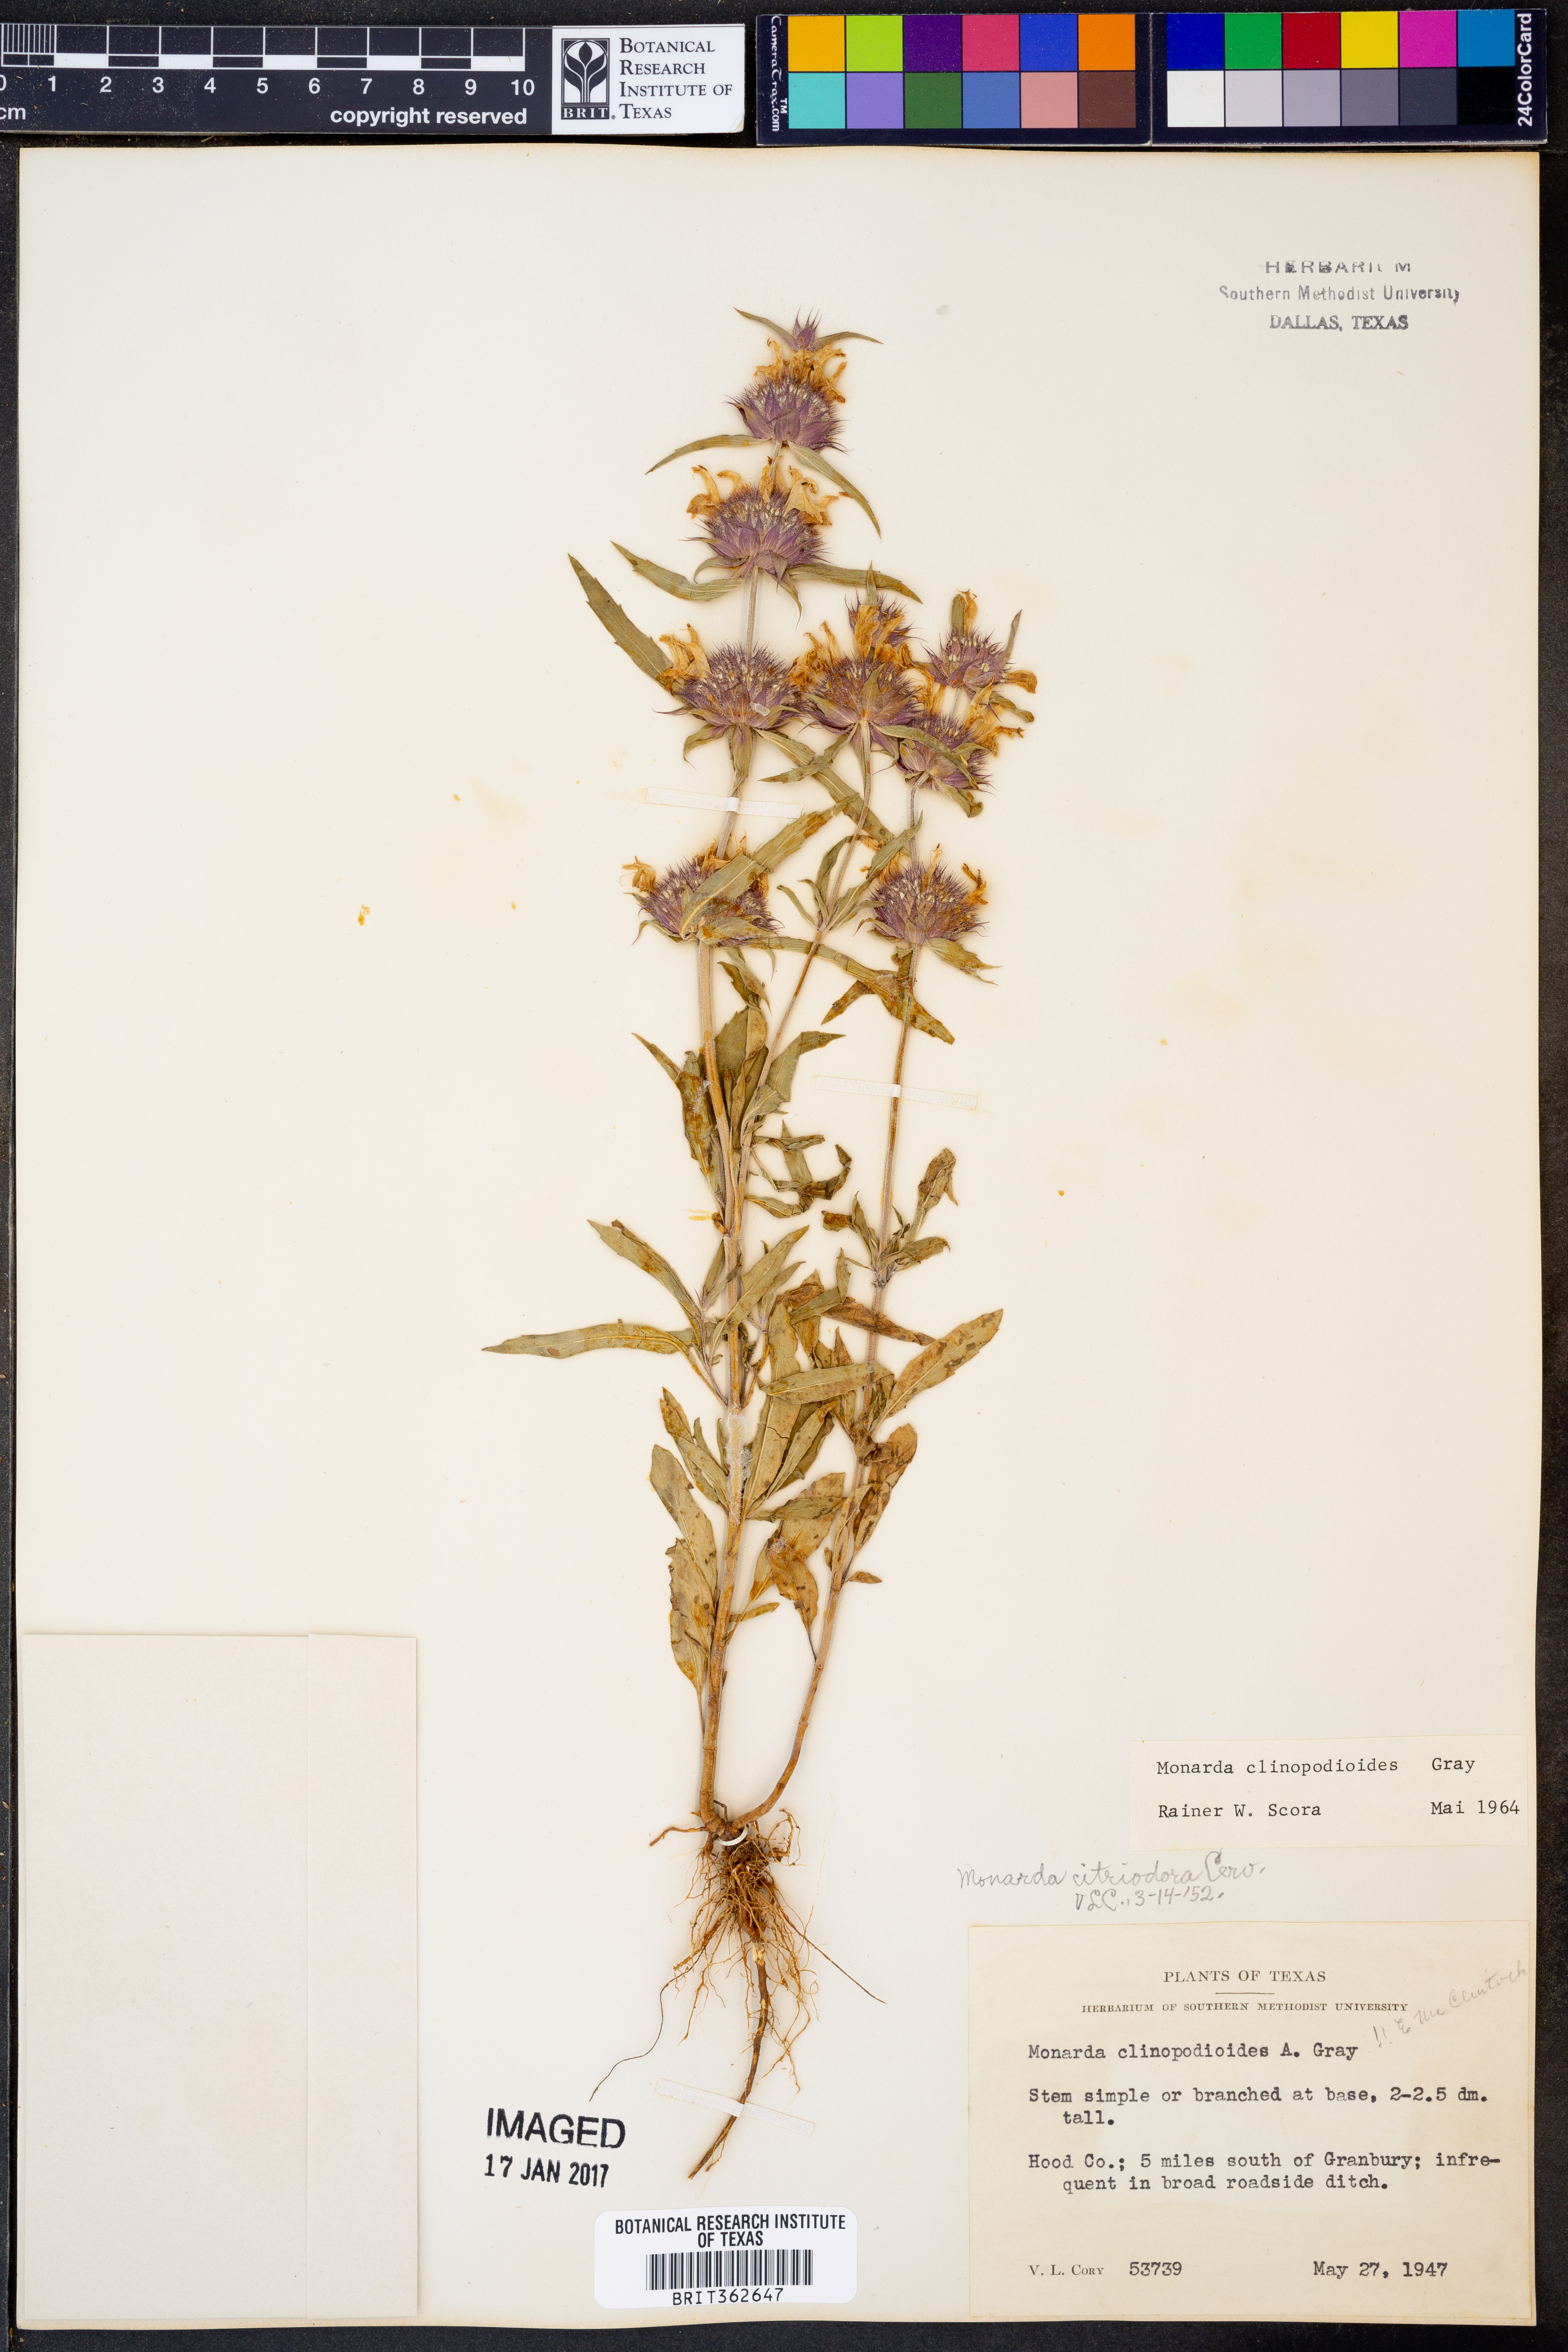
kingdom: Plantae
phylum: Tracheophyta
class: Magnoliopsida
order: Lamiales
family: Lamiaceae
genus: Monarda
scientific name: Monarda clinopodioides
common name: Basil beebalm
